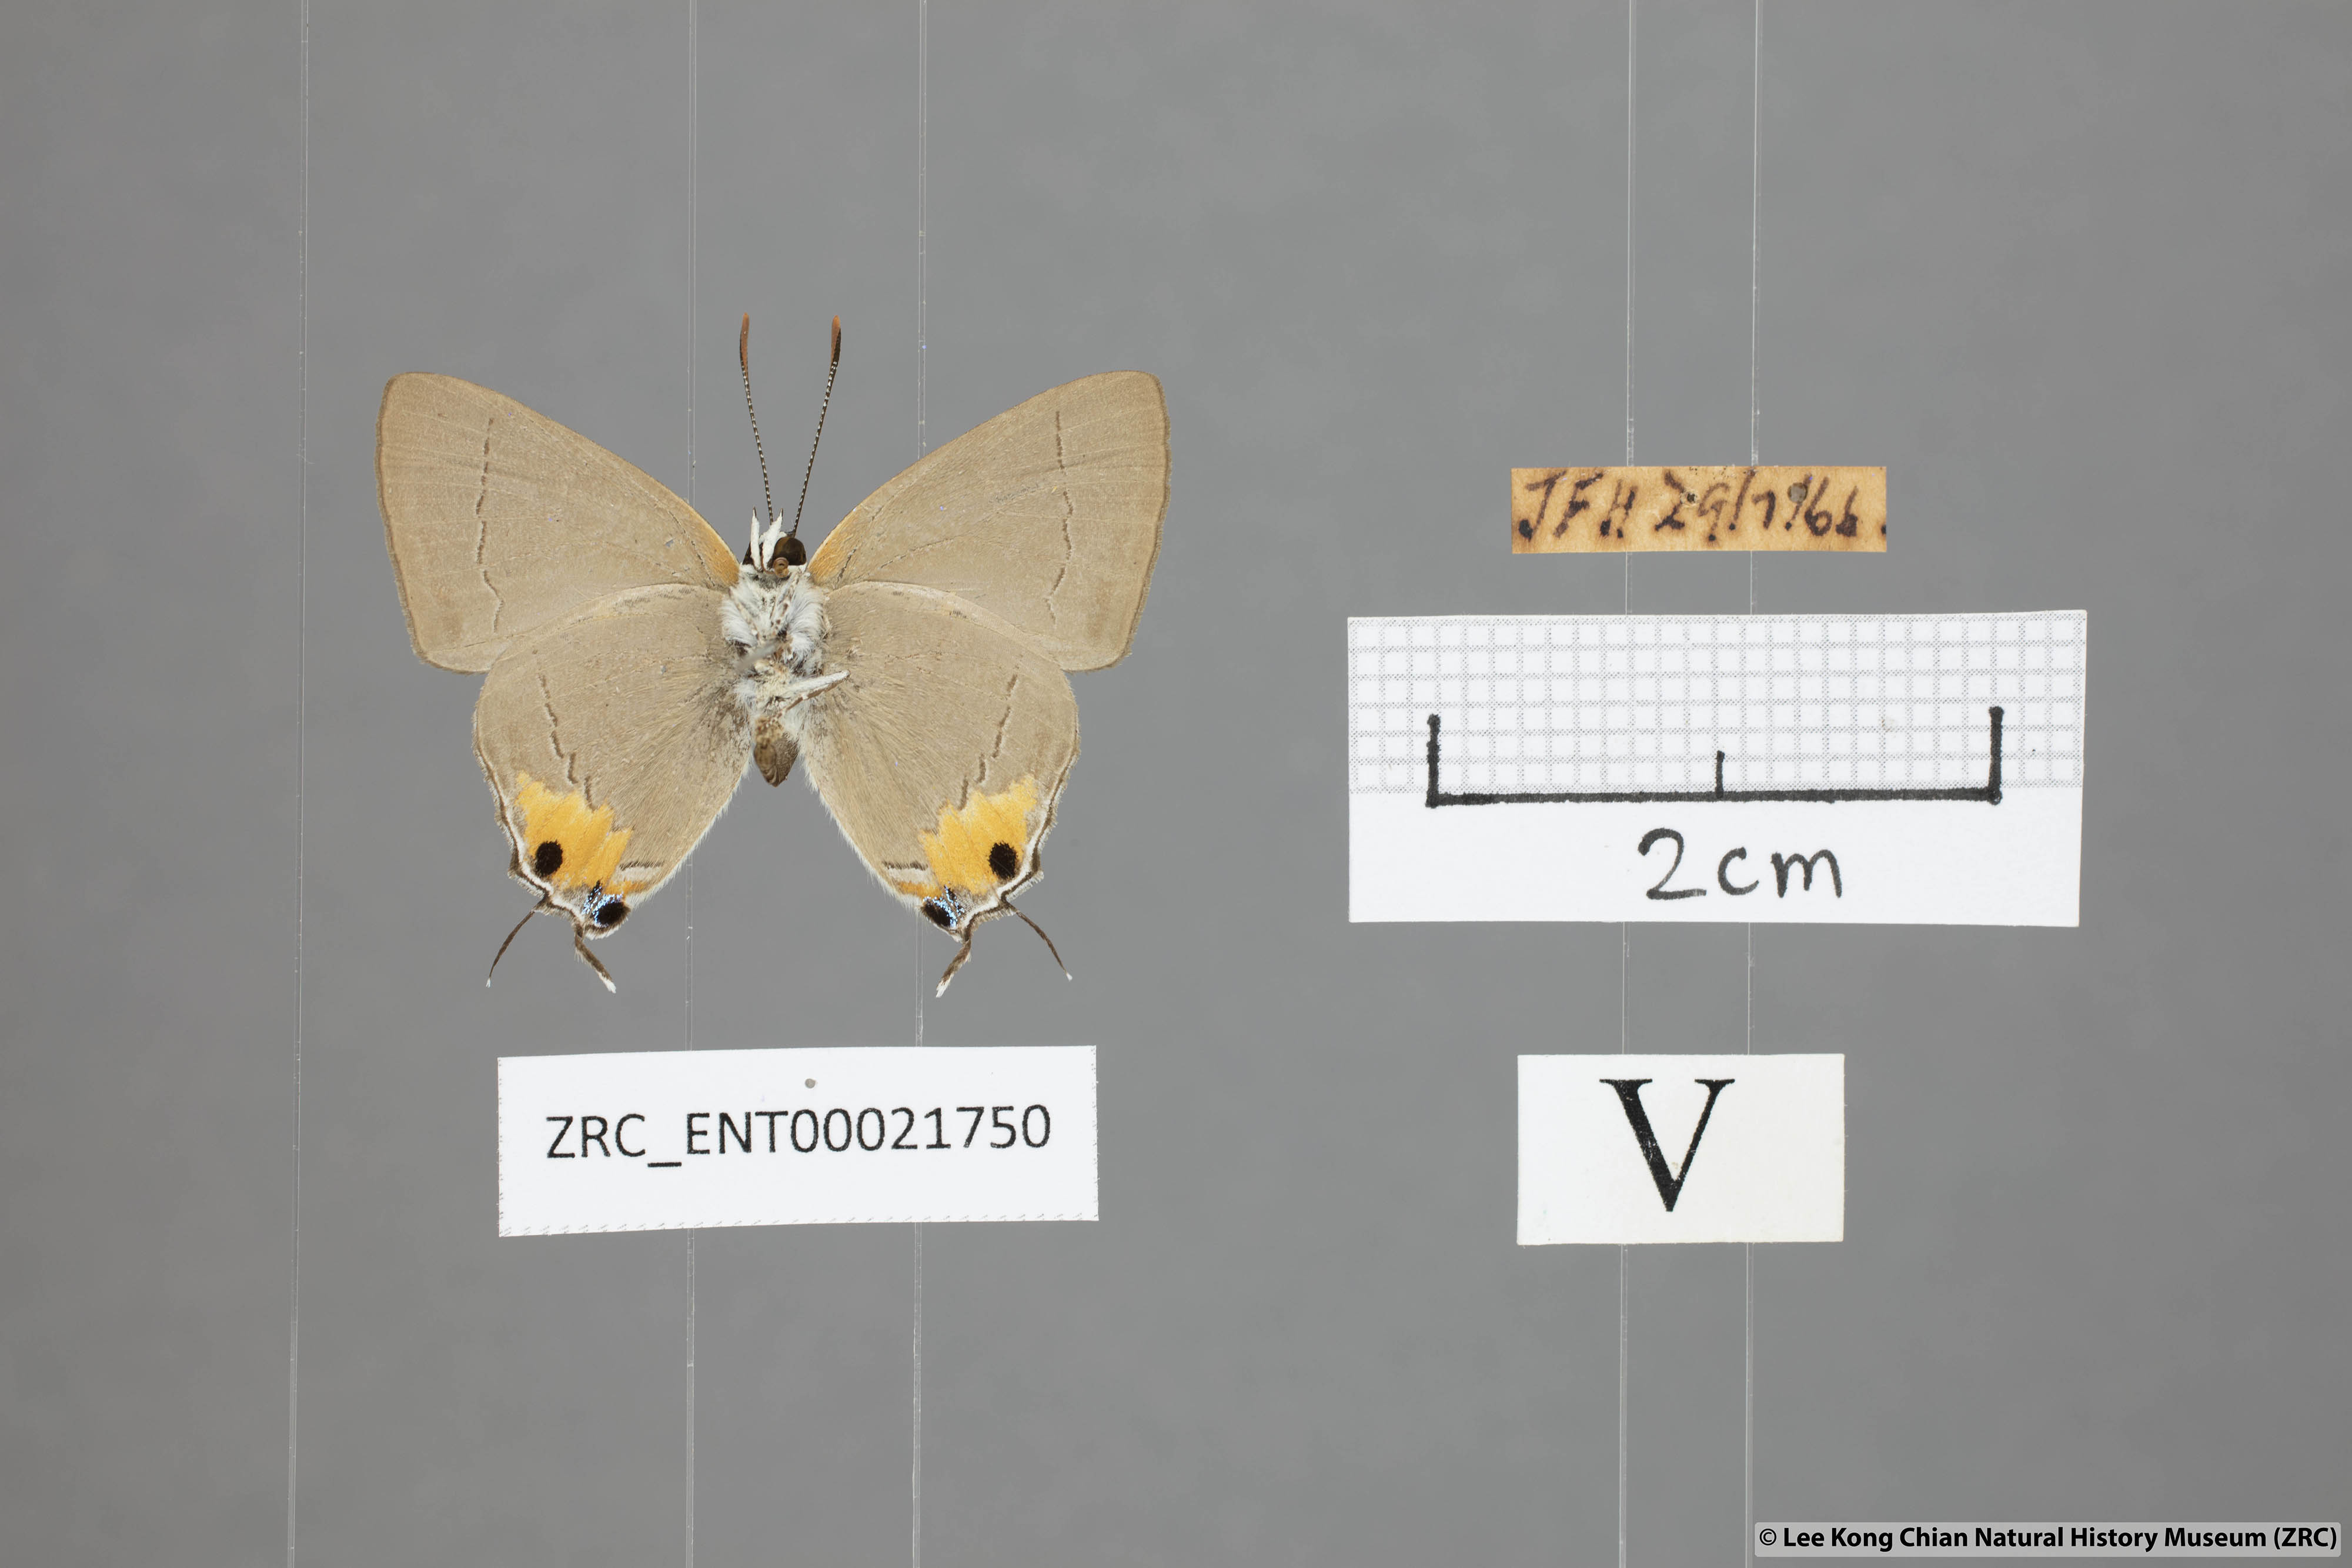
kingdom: Animalia
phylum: Arthropoda
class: Insecta
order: Lepidoptera
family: Lycaenidae
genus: Pratapa
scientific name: Pratapa
